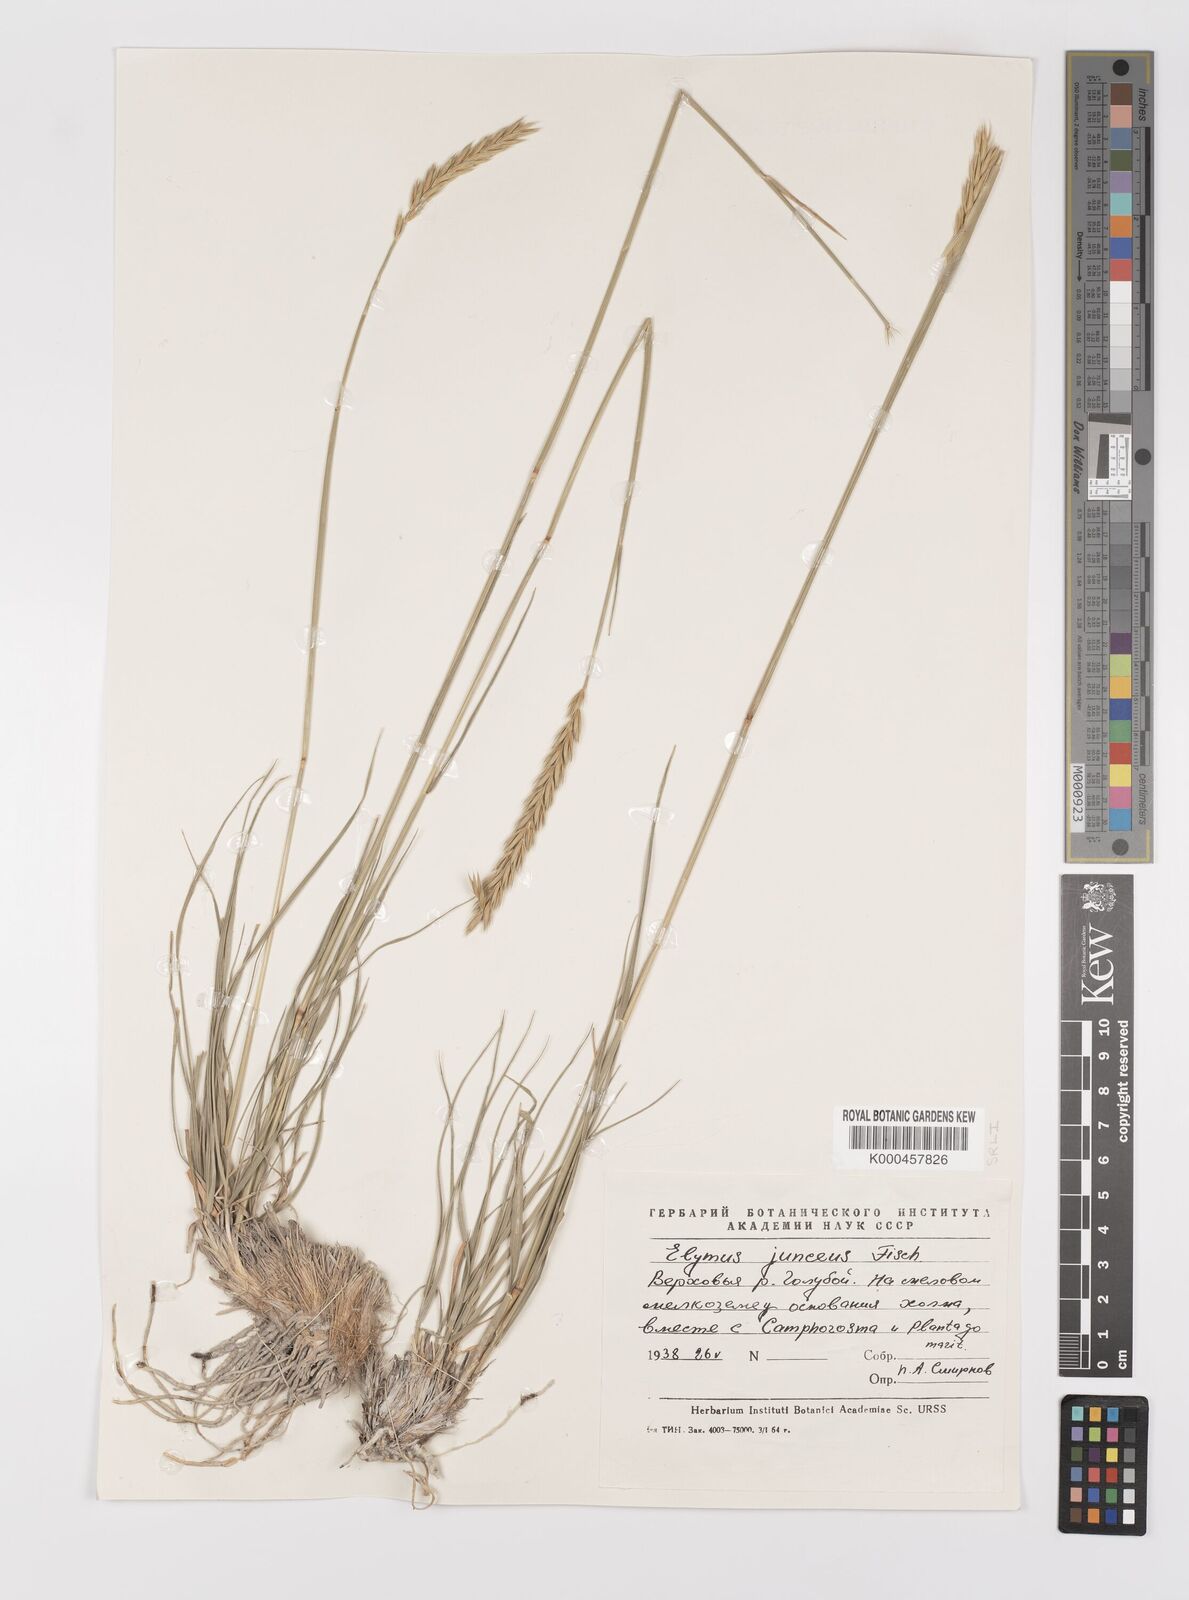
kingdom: Plantae
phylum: Tracheophyta
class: Liliopsida
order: Poales
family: Poaceae
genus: Psathyrostachys
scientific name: Psathyrostachys juncea
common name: Russian wildrye
